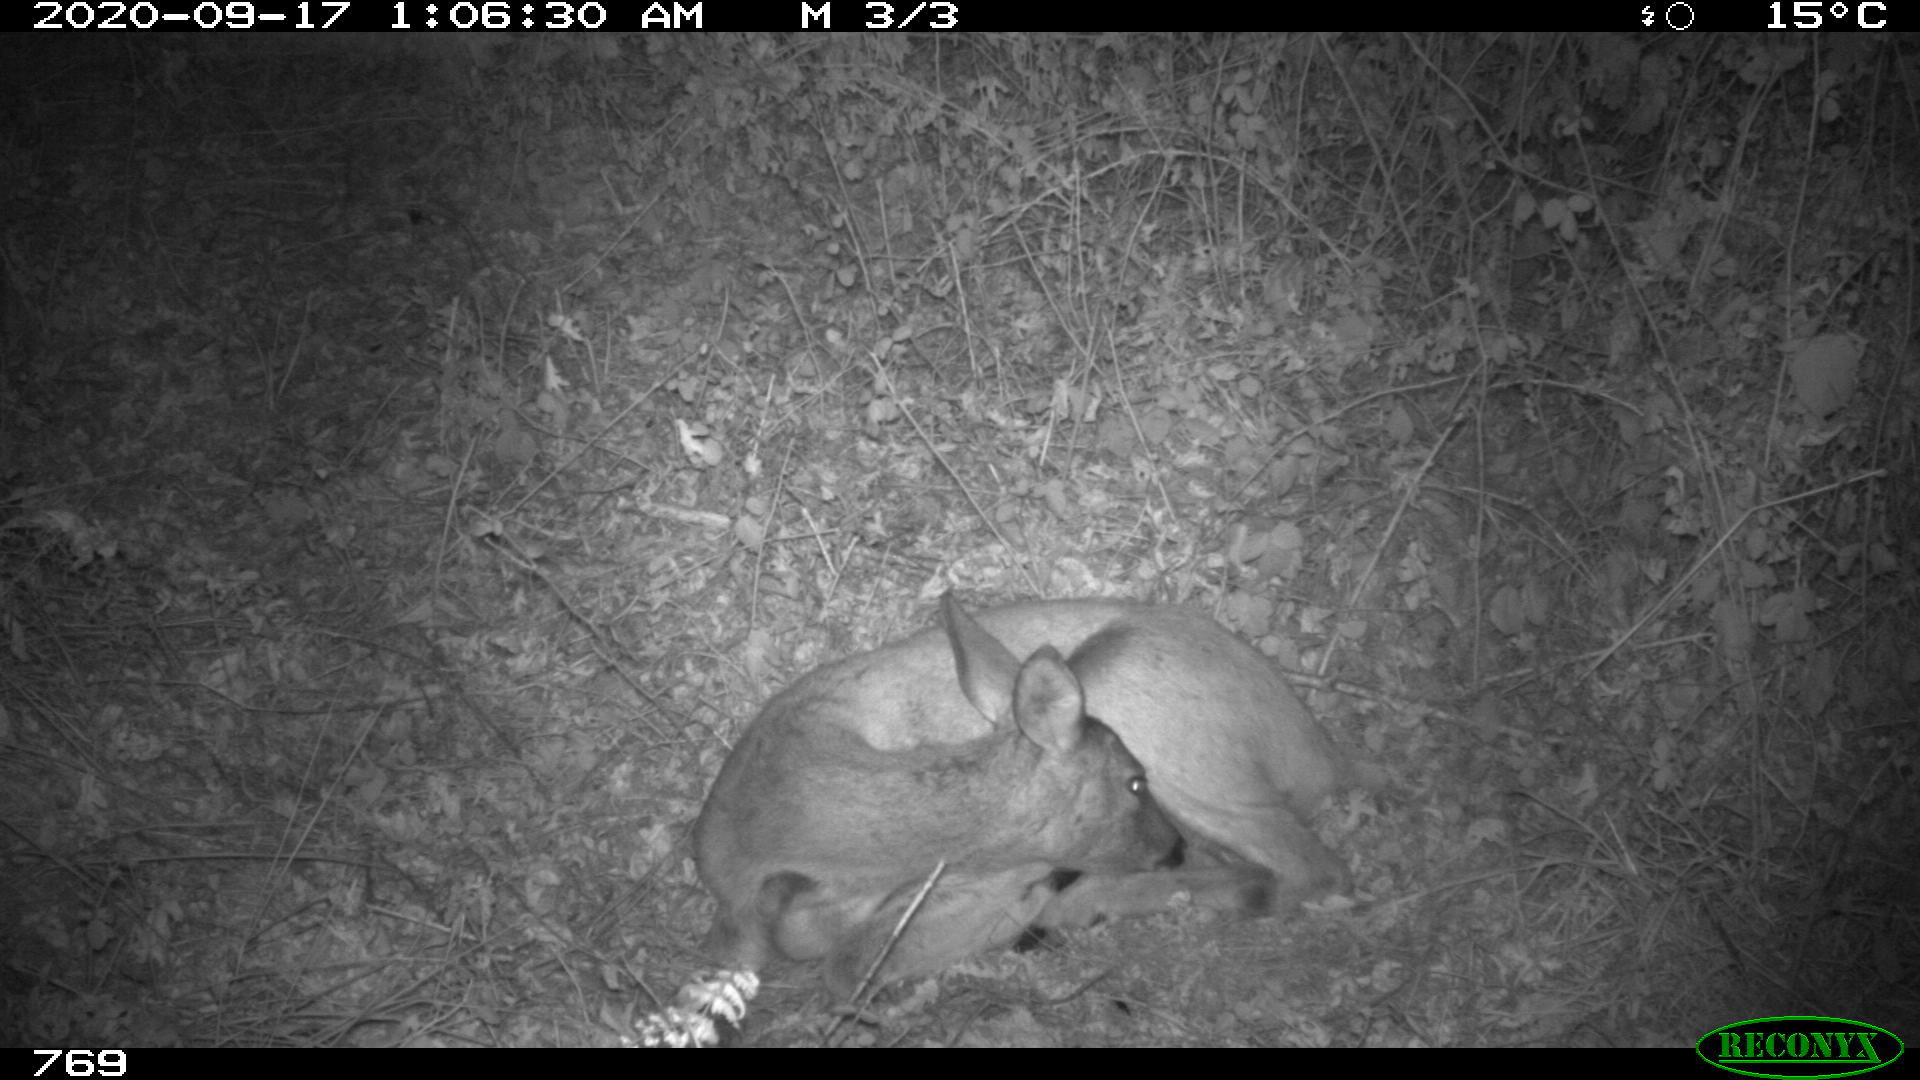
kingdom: Animalia
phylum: Chordata
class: Mammalia
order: Artiodactyla
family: Cervidae
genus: Capreolus
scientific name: Capreolus capreolus
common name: Western roe deer
